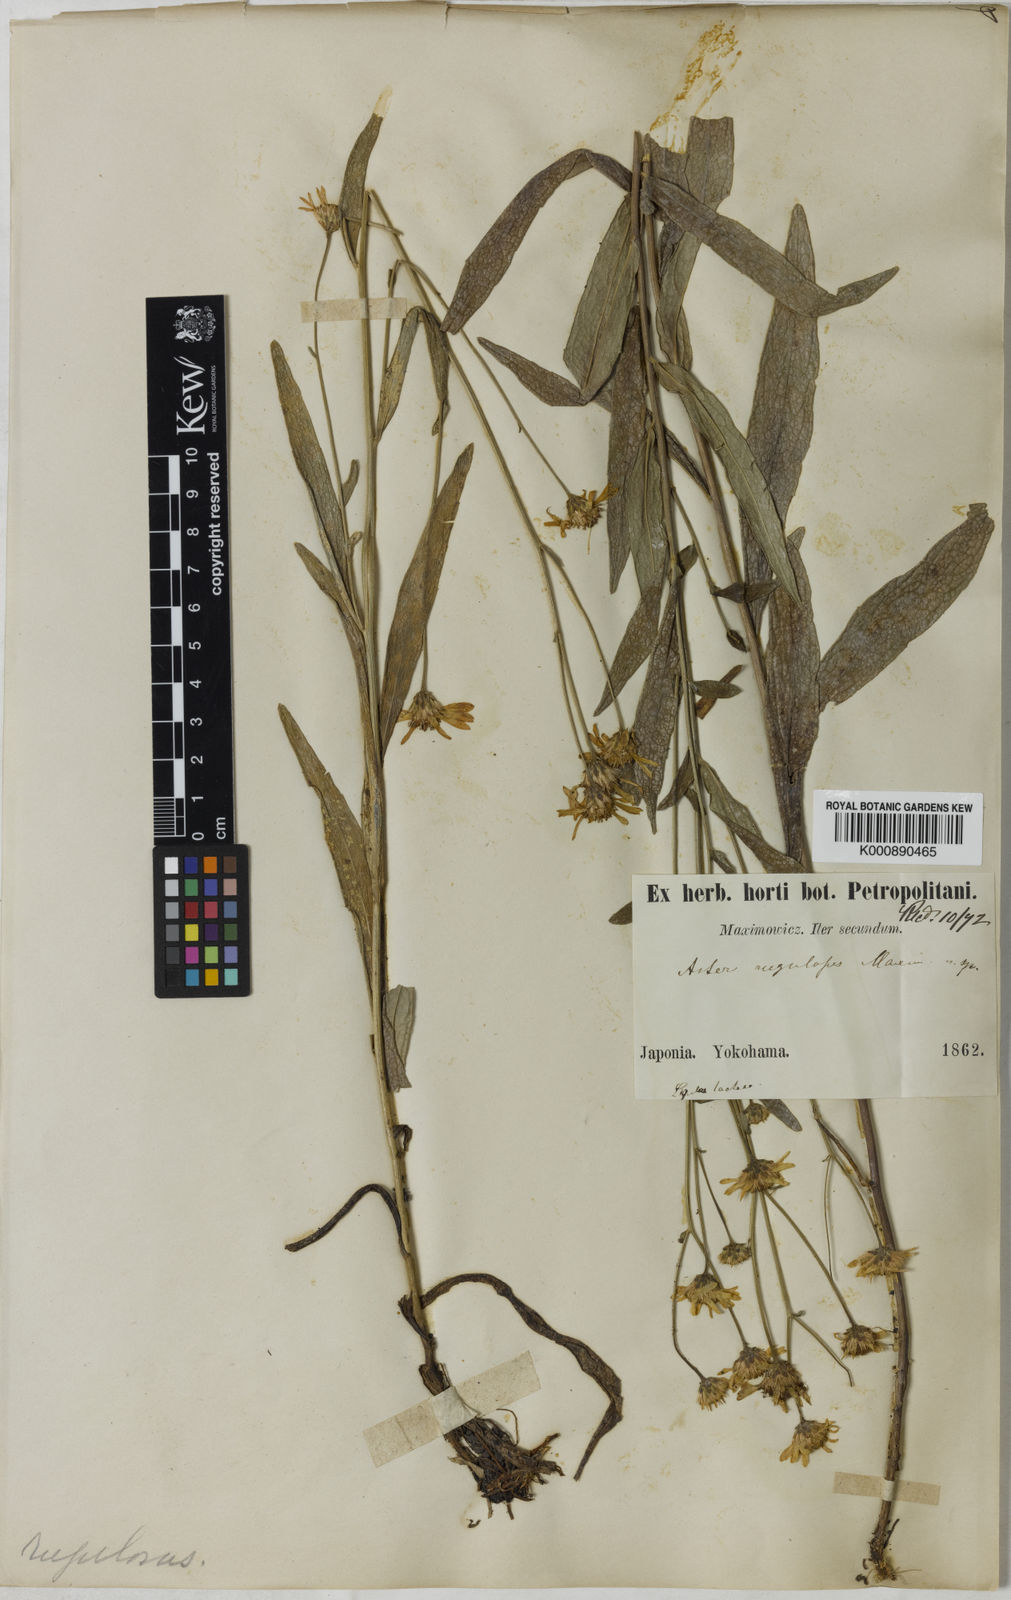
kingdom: Plantae
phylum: Tracheophyta
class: Magnoliopsida
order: Asterales
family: Asteraceae
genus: Cardiagyris
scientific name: Cardiagyris rugulosa
